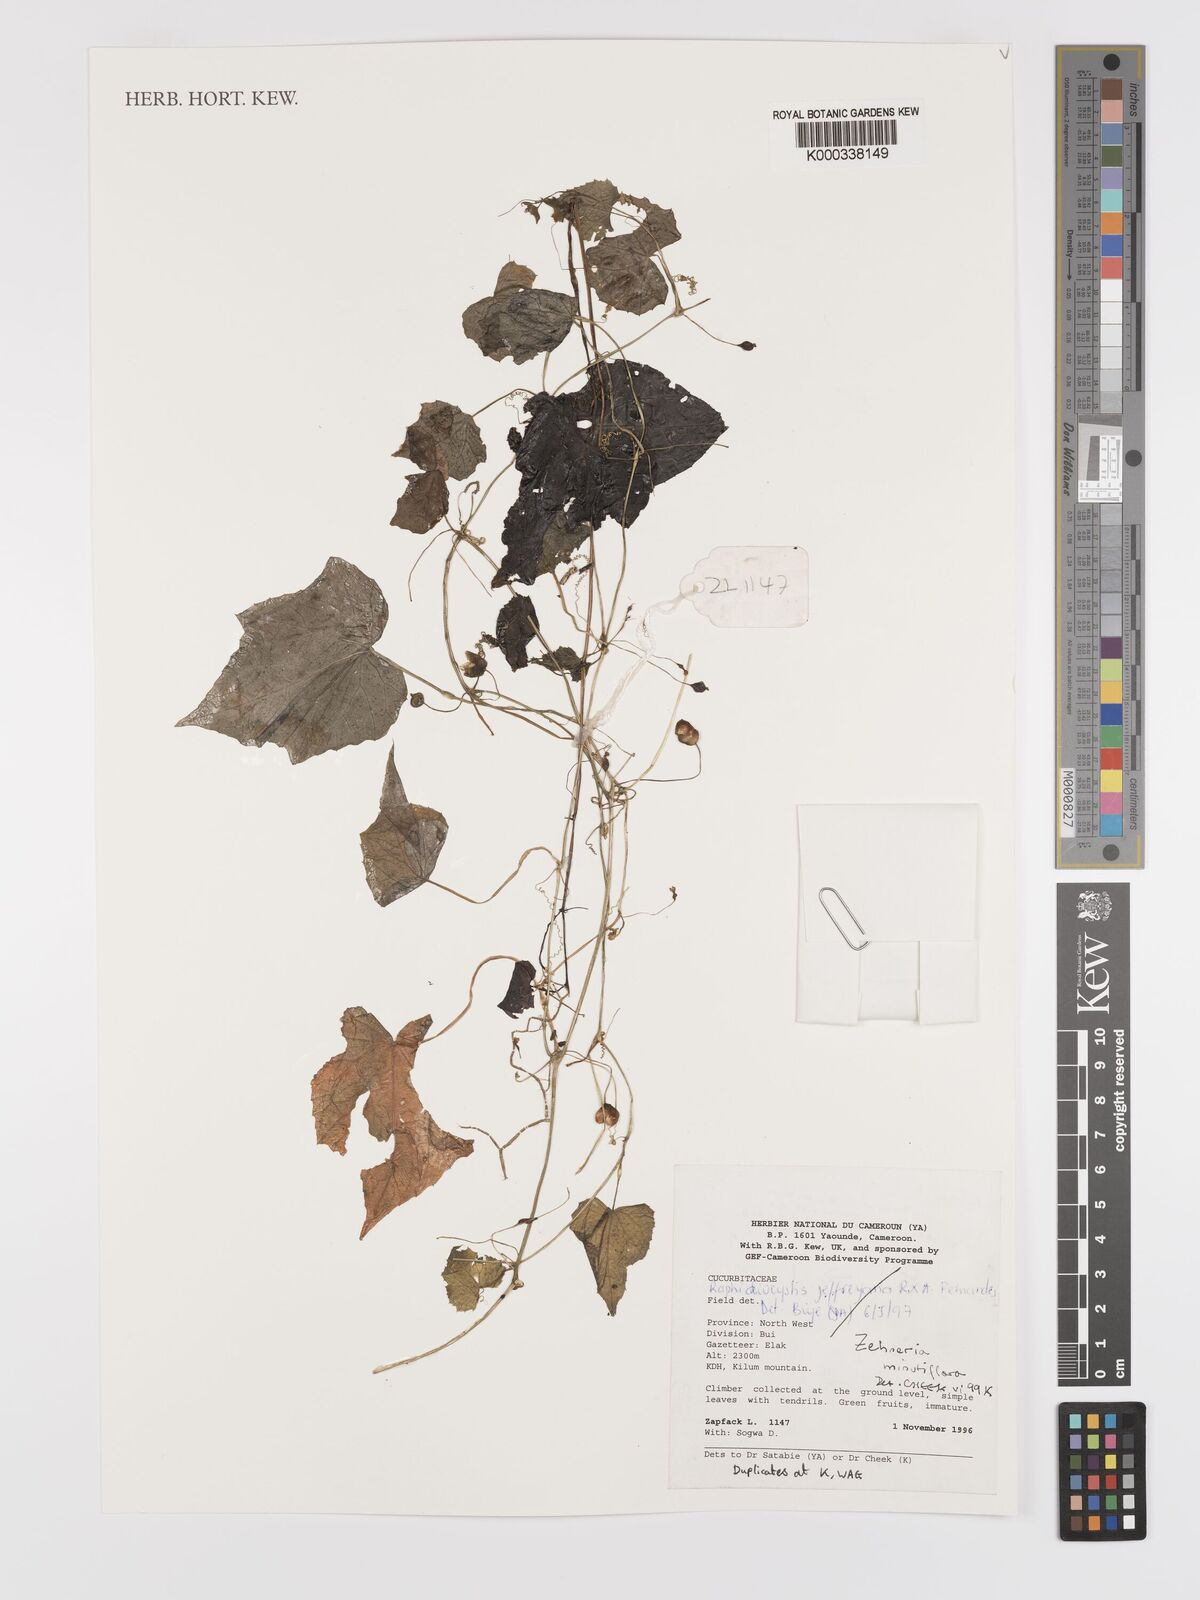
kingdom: Plantae
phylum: Tracheophyta
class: Magnoliopsida
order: Cucurbitales
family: Cucurbitaceae
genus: Zehneria
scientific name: Zehneria minutiflora
